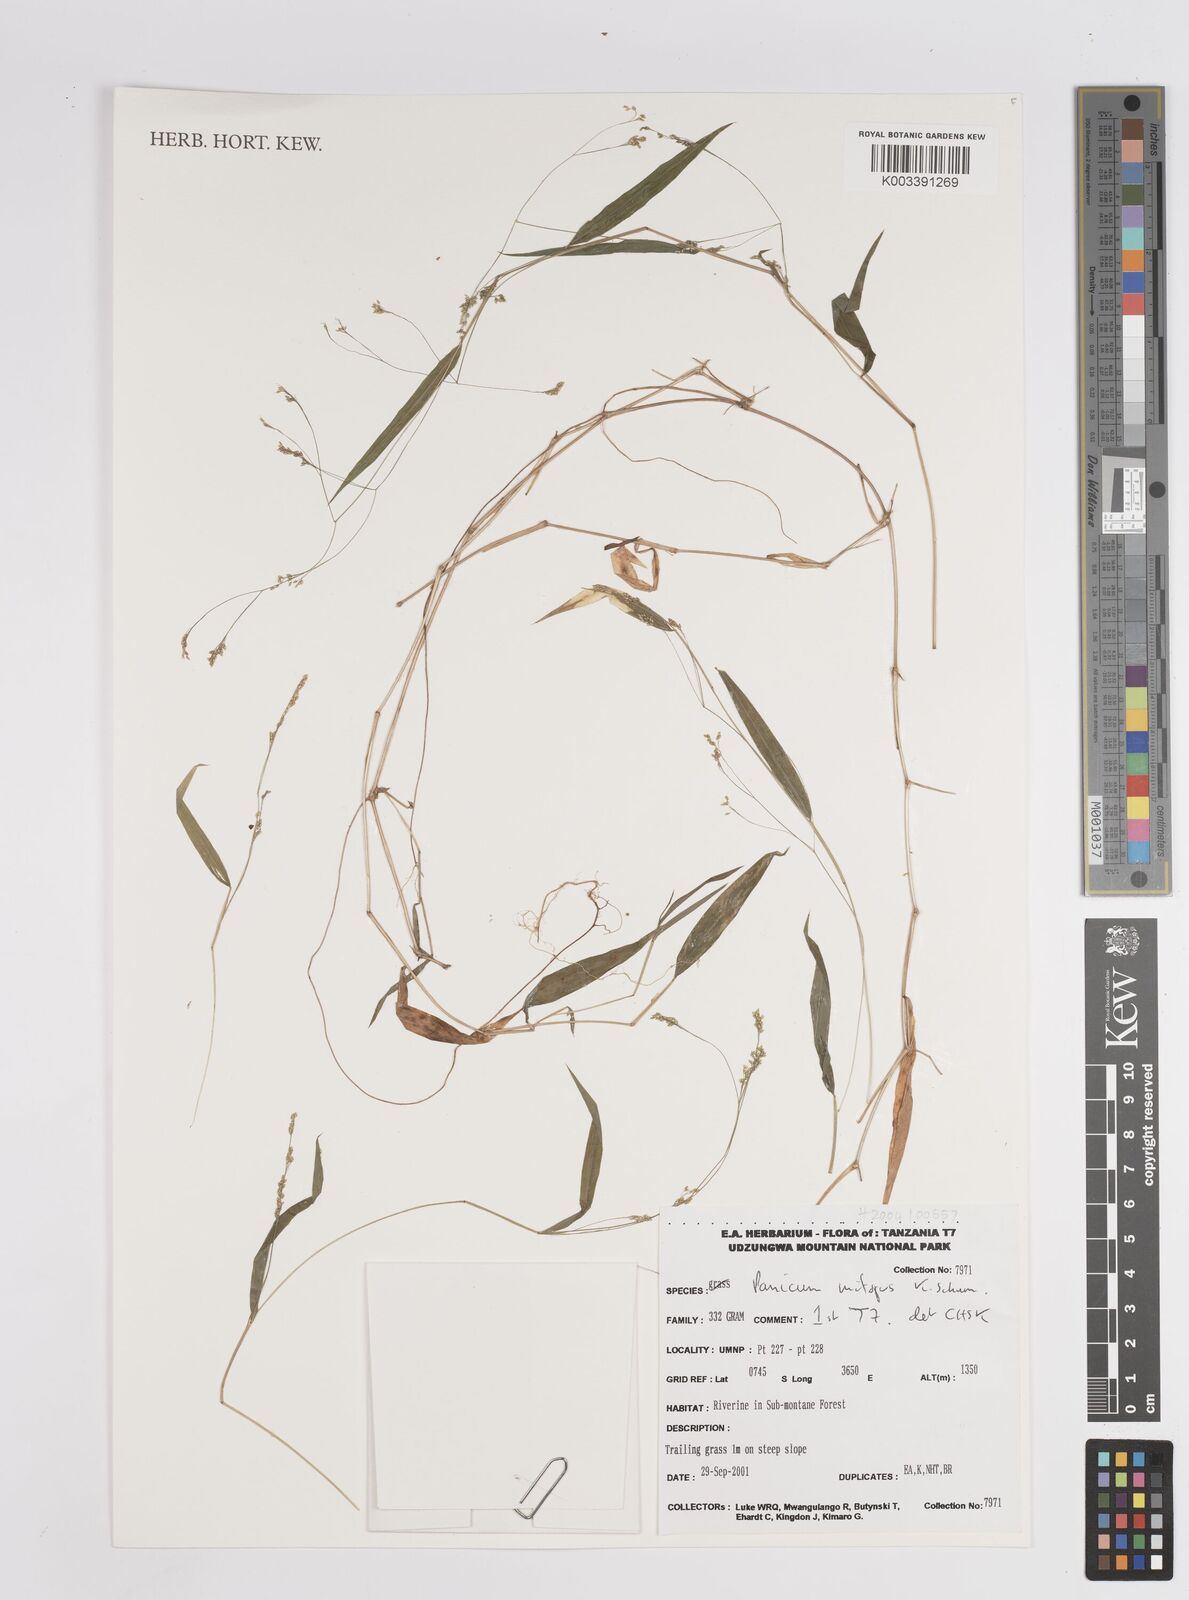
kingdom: Plantae
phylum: Tracheophyta
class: Liliopsida
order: Poales
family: Poaceae
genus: Panicum
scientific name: Panicum mitopus
